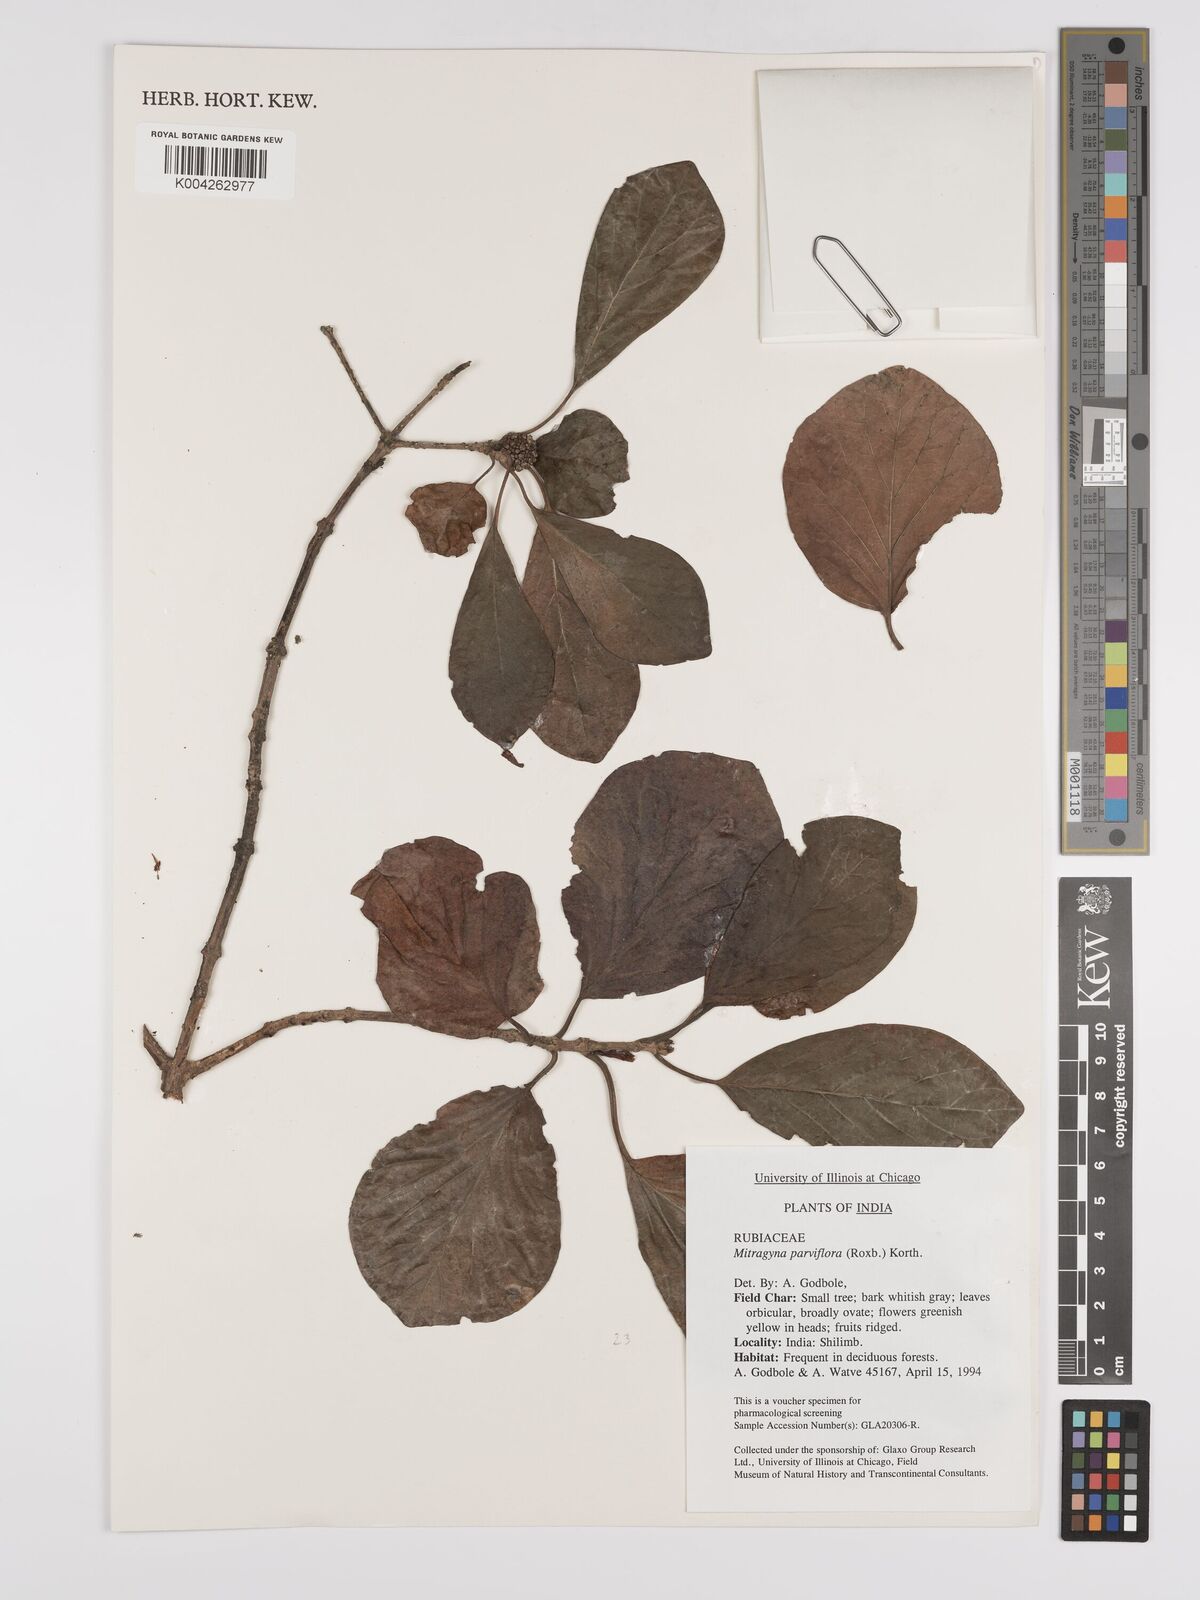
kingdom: Plantae
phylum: Tracheophyta
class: Magnoliopsida
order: Gentianales
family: Rubiaceae
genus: Mitragyna
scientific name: Mitragyna parvifolia
